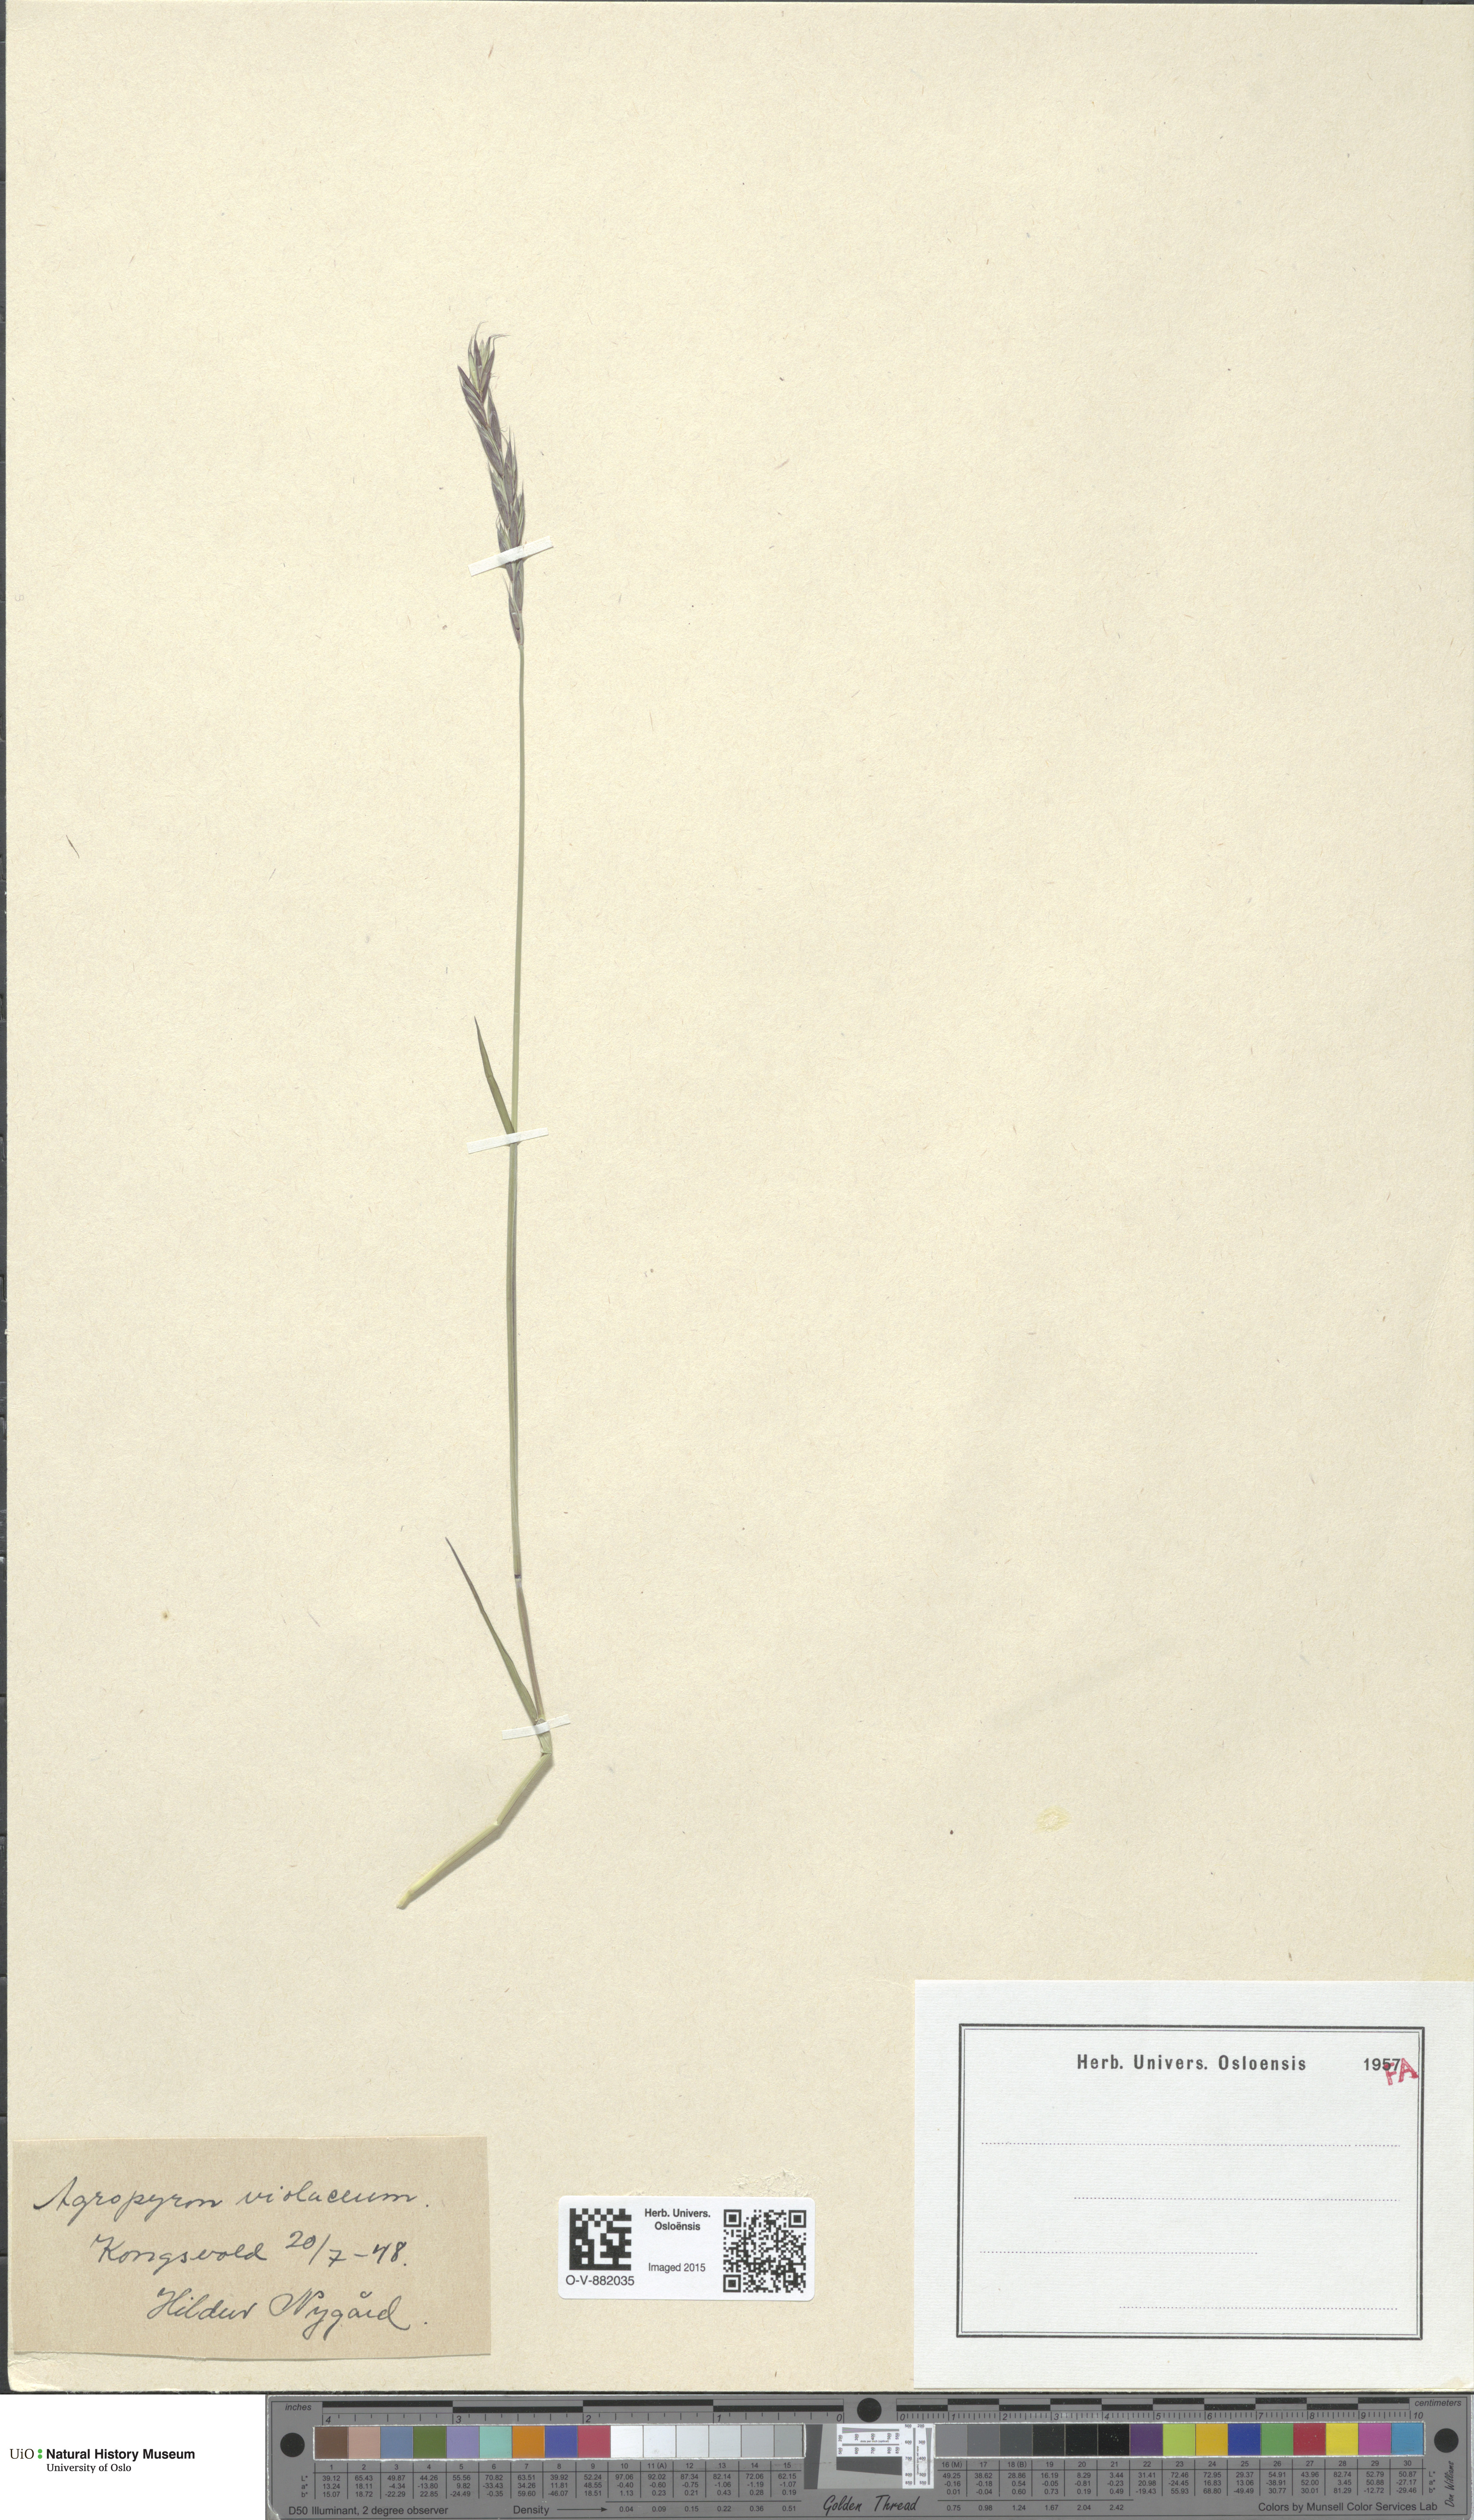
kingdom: Plantae
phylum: Tracheophyta
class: Liliopsida
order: Poales
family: Poaceae
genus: Elymus
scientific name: Elymus violaceus
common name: Arctic wheatgrass
